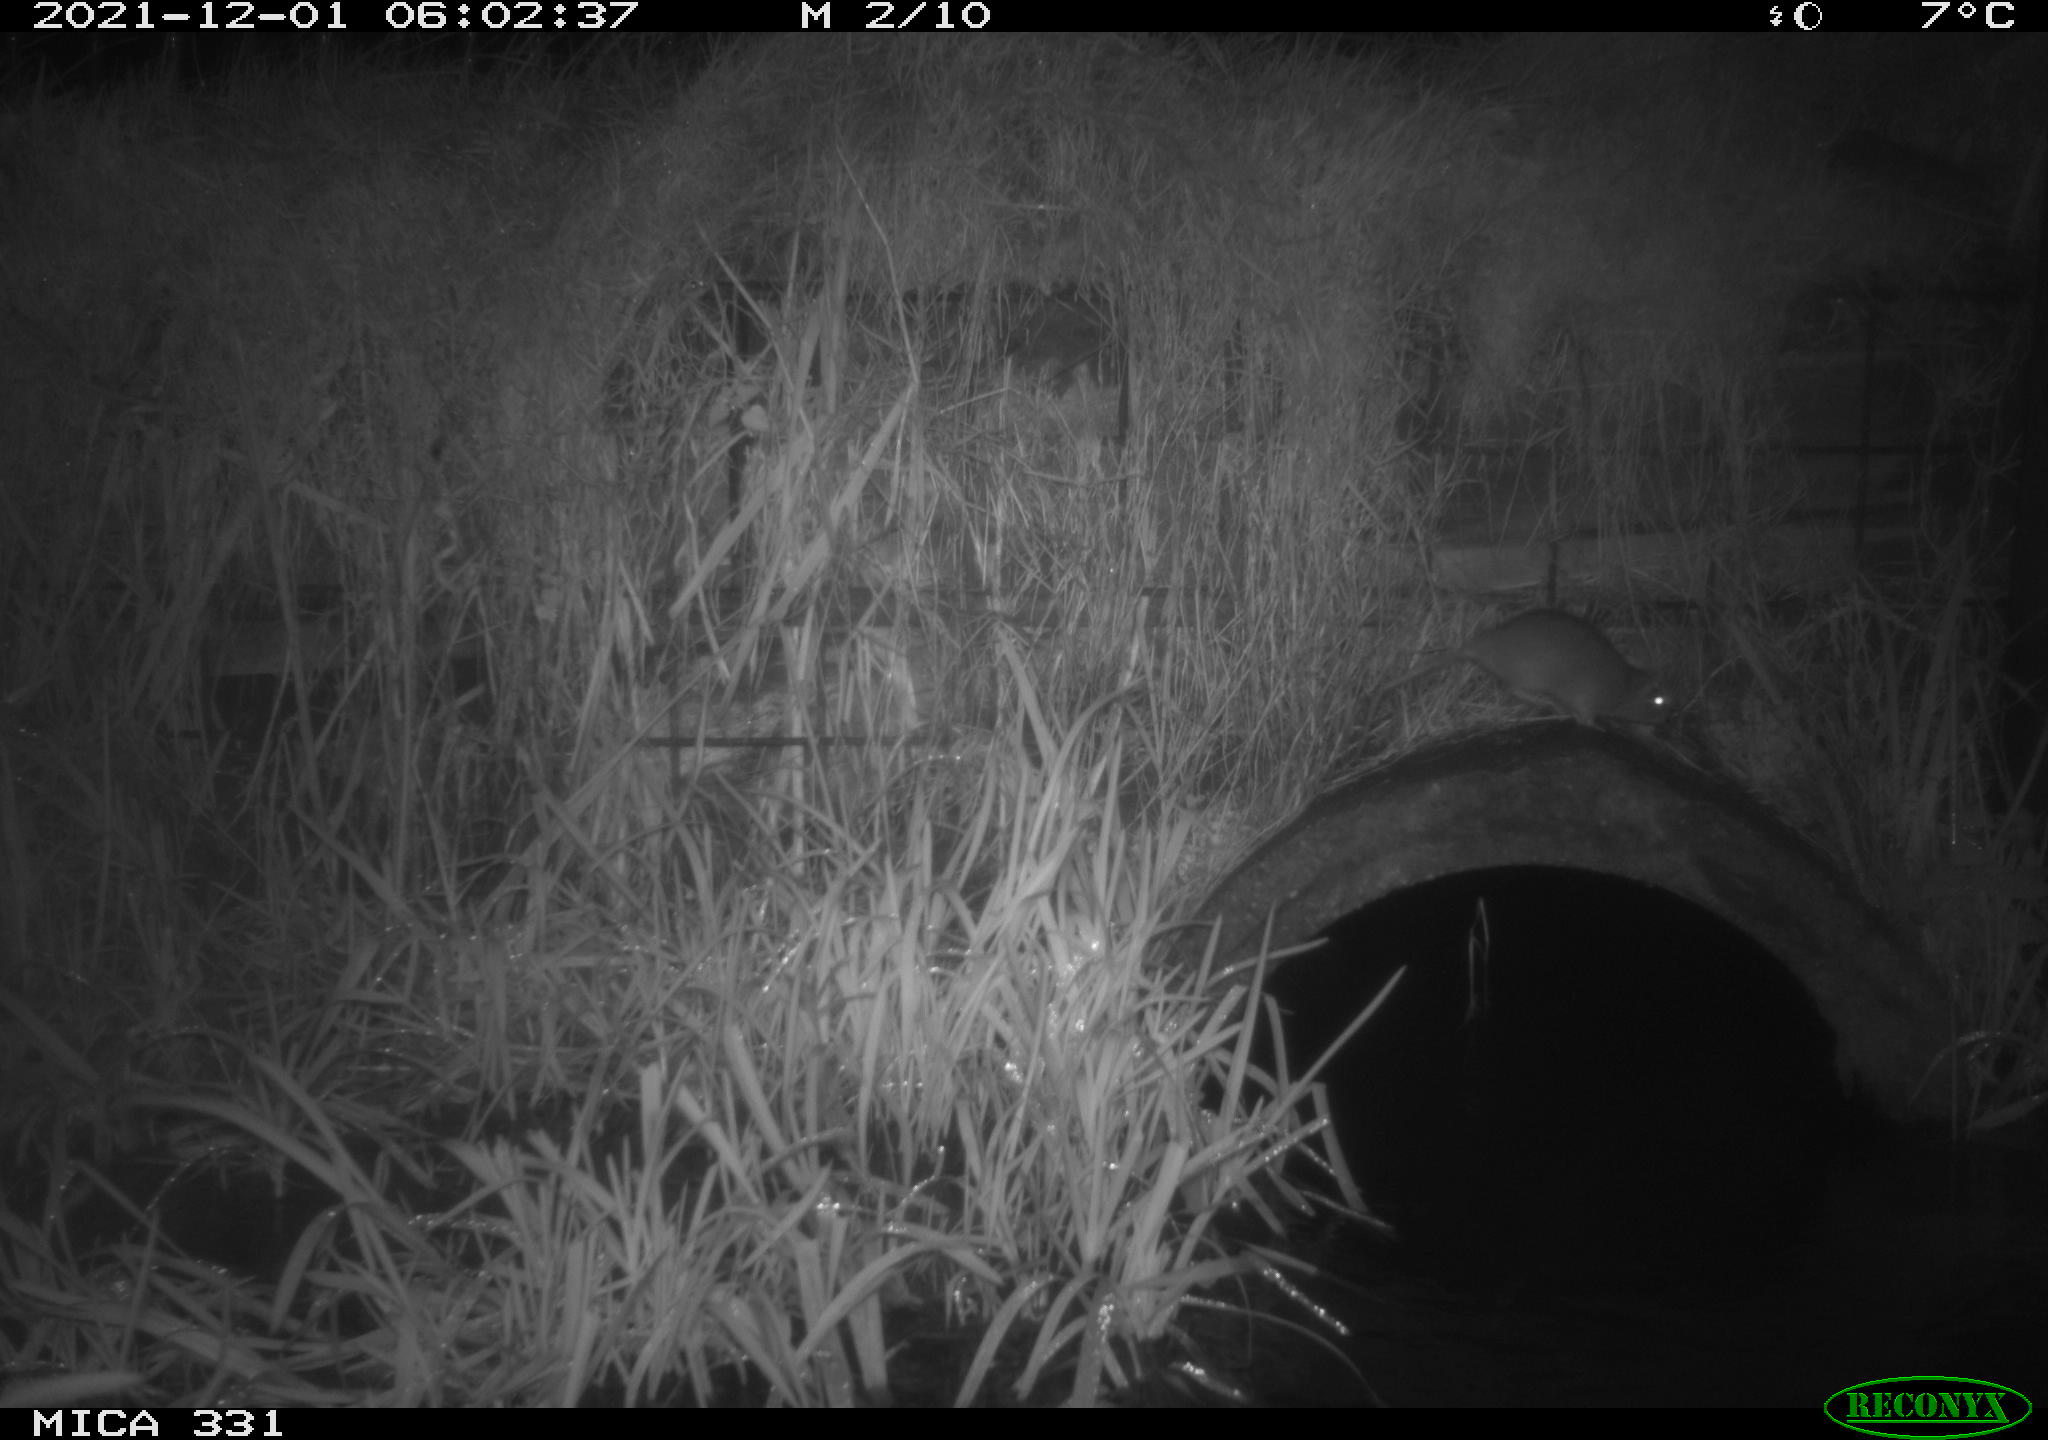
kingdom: Animalia
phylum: Chordata
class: Mammalia
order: Rodentia
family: Muridae
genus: Rattus
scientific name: Rattus norvegicus
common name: Brown rat
